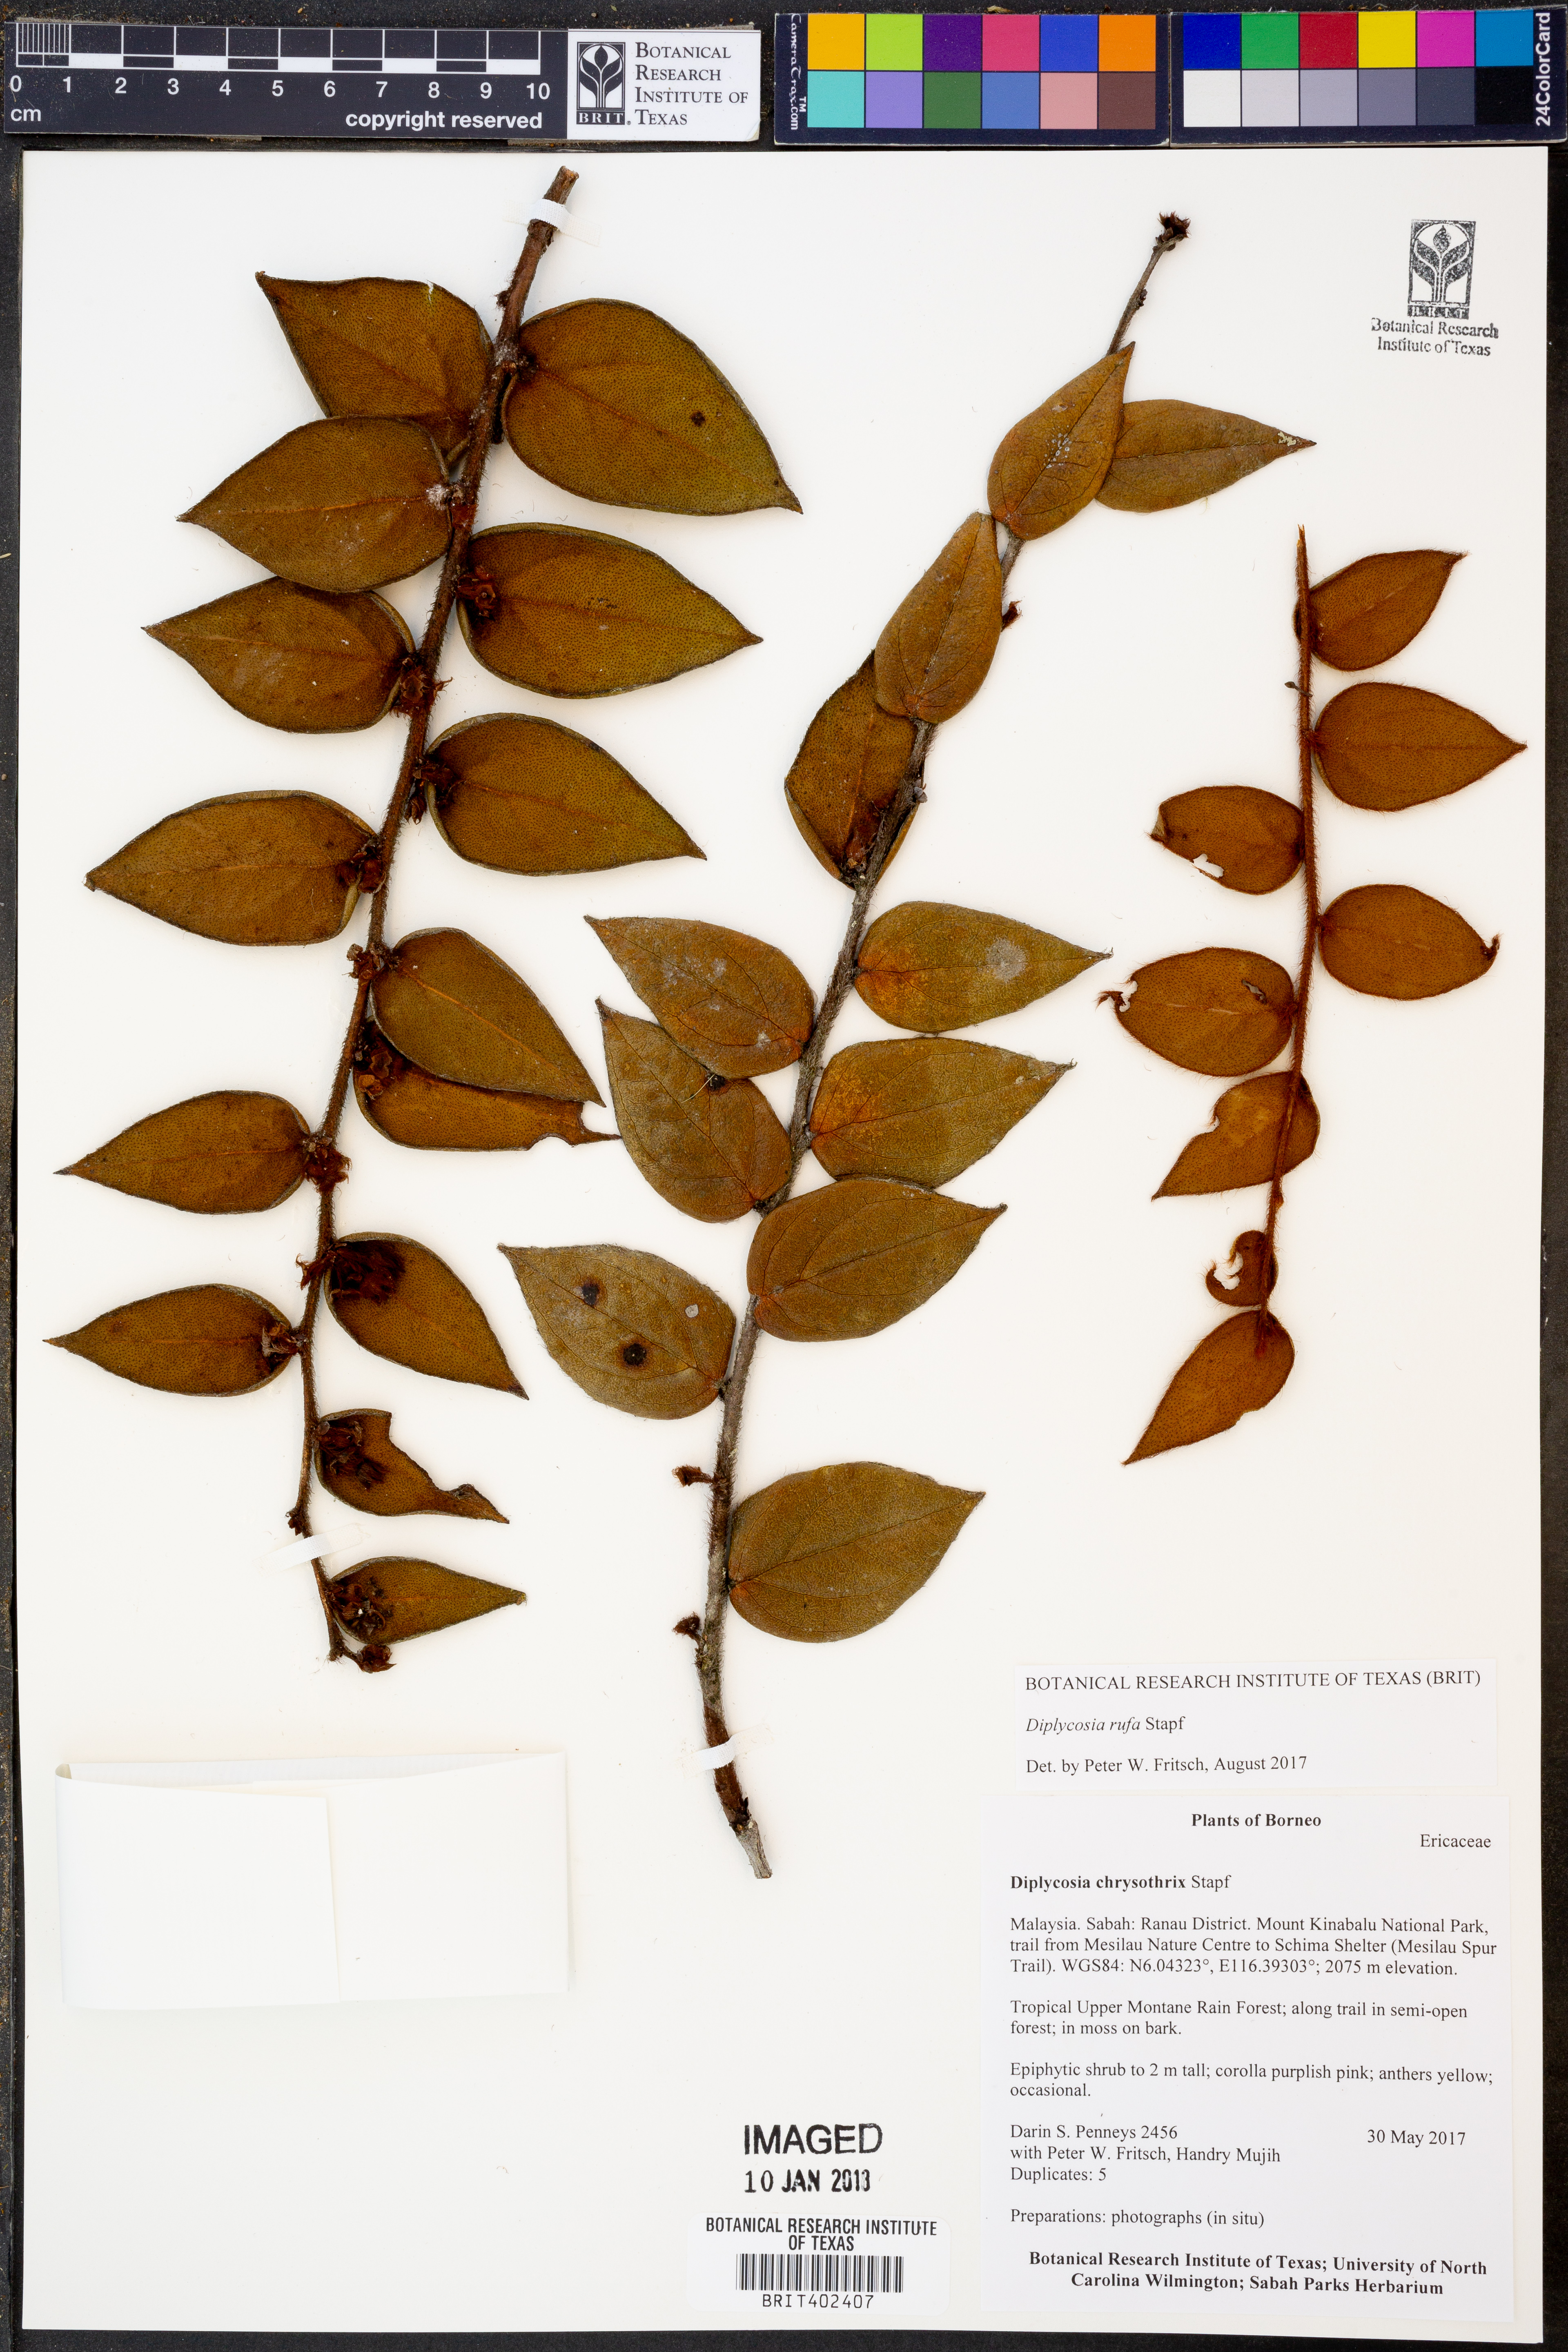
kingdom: Plantae
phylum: Tracheophyta
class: Magnoliopsida
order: Ericales
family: Ericaceae
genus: Gaultheria
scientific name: Gaultheria rufa
